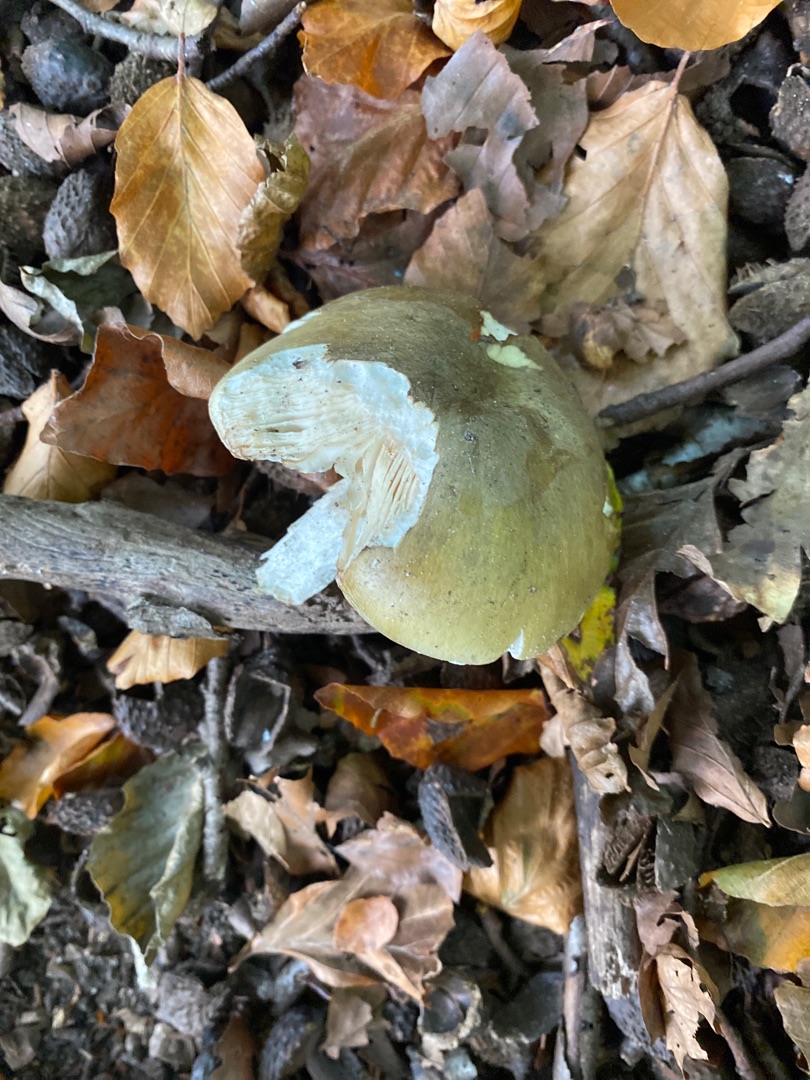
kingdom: Fungi
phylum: Basidiomycota
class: Agaricomycetes
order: Agaricales
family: Amanitaceae
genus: Amanita
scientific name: Amanita phalloides
